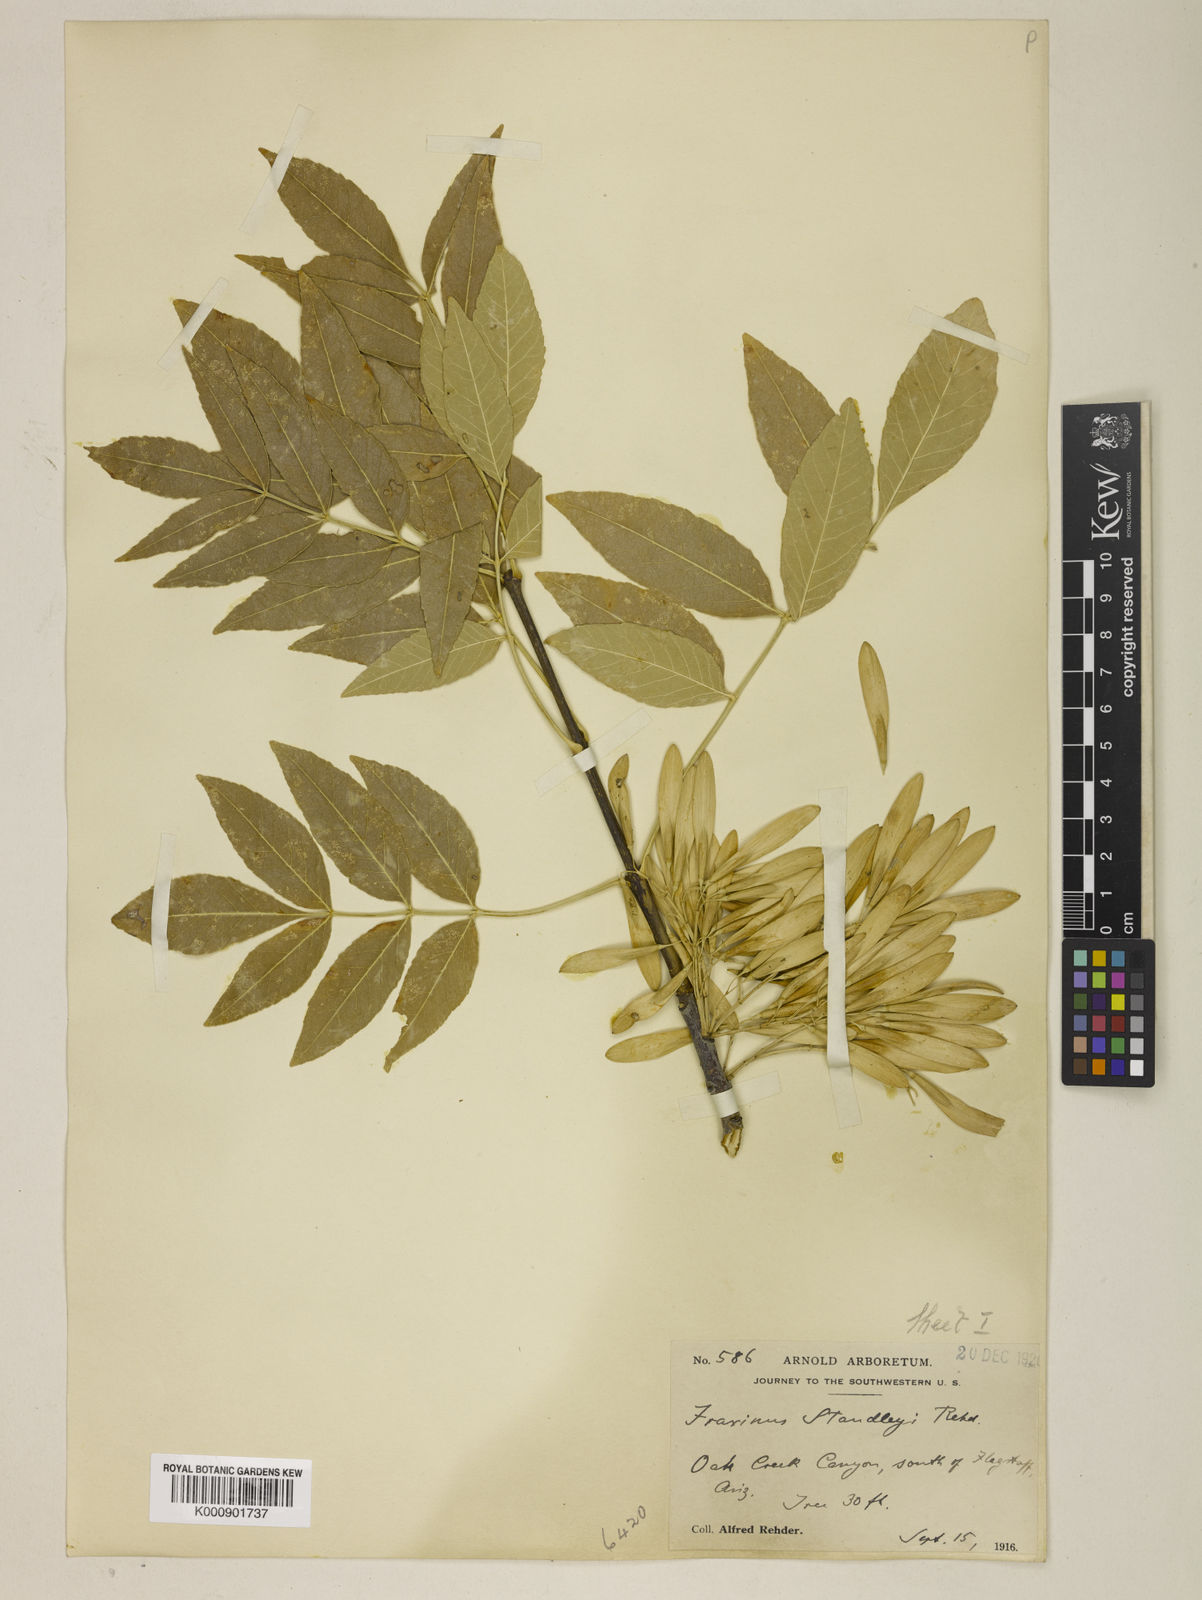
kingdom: Plantae
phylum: Tracheophyta
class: Magnoliopsida
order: Lamiales
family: Oleaceae
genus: Fraxinus
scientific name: Fraxinus pennsylvanica
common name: Green ash
